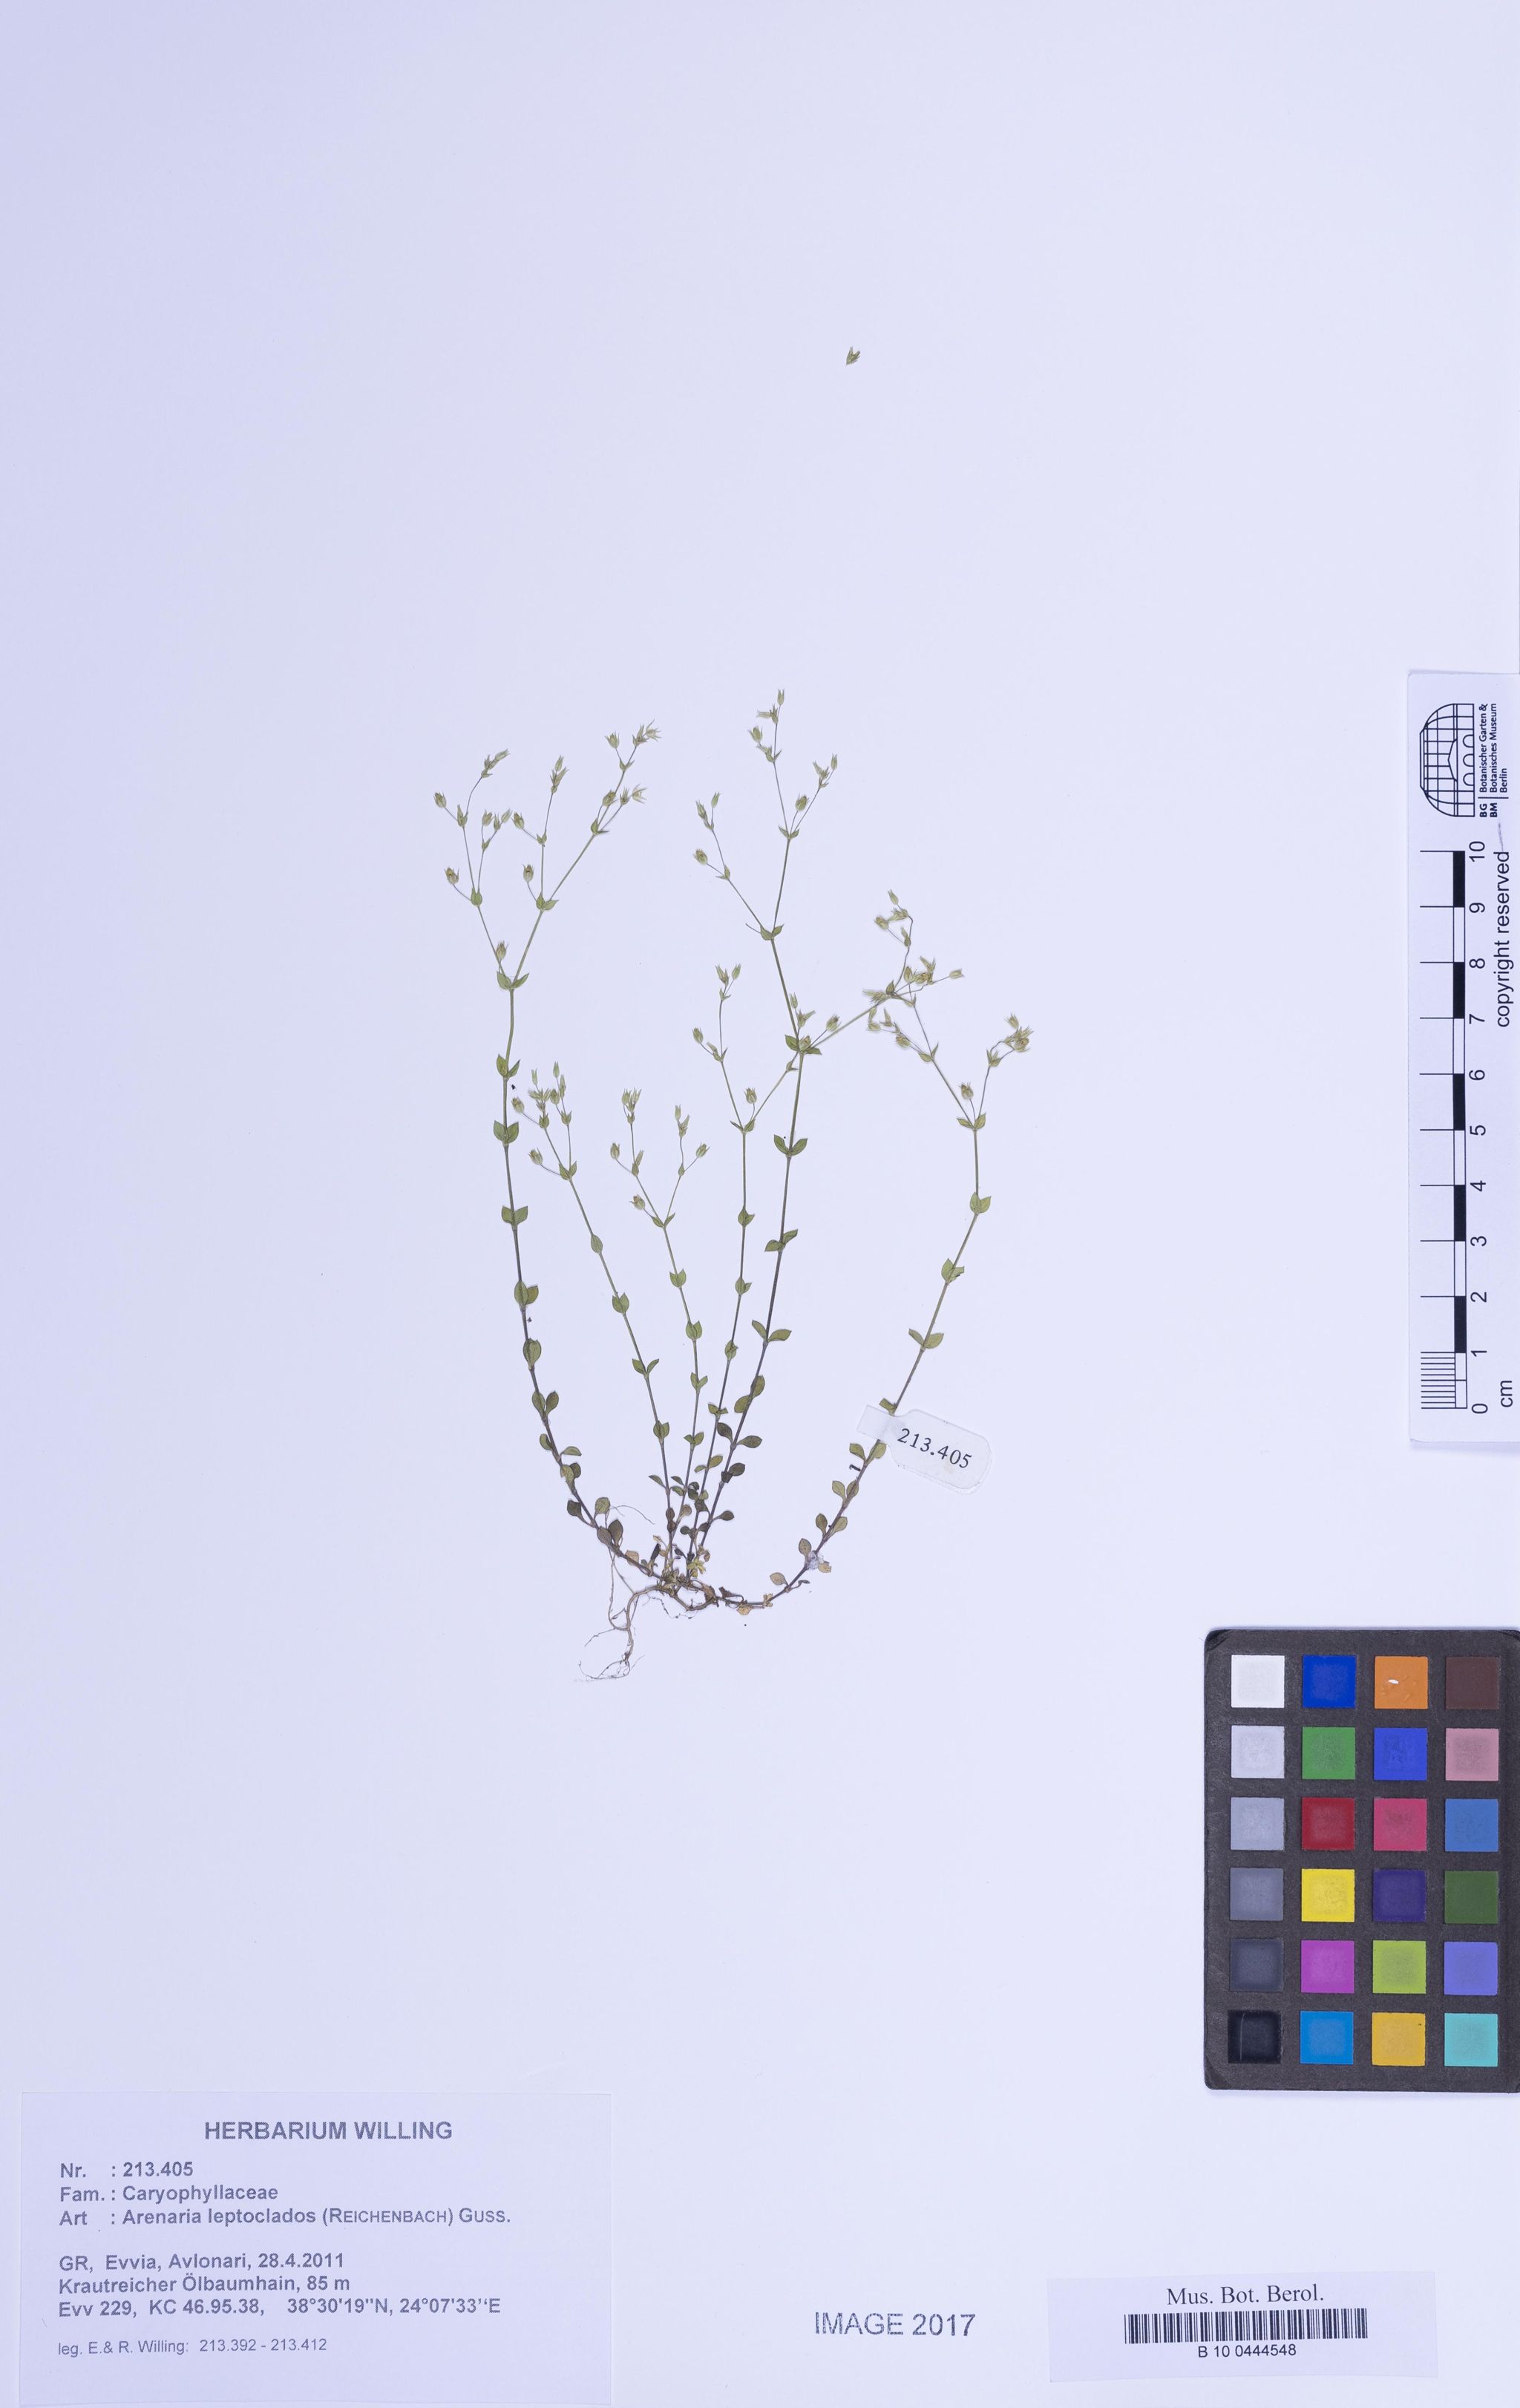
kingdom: Plantae
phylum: Tracheophyta
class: Magnoliopsida
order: Caryophyllales
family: Caryophyllaceae
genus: Arenaria
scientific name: Arenaria leptoclados
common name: Thyme-leaved sandwort
